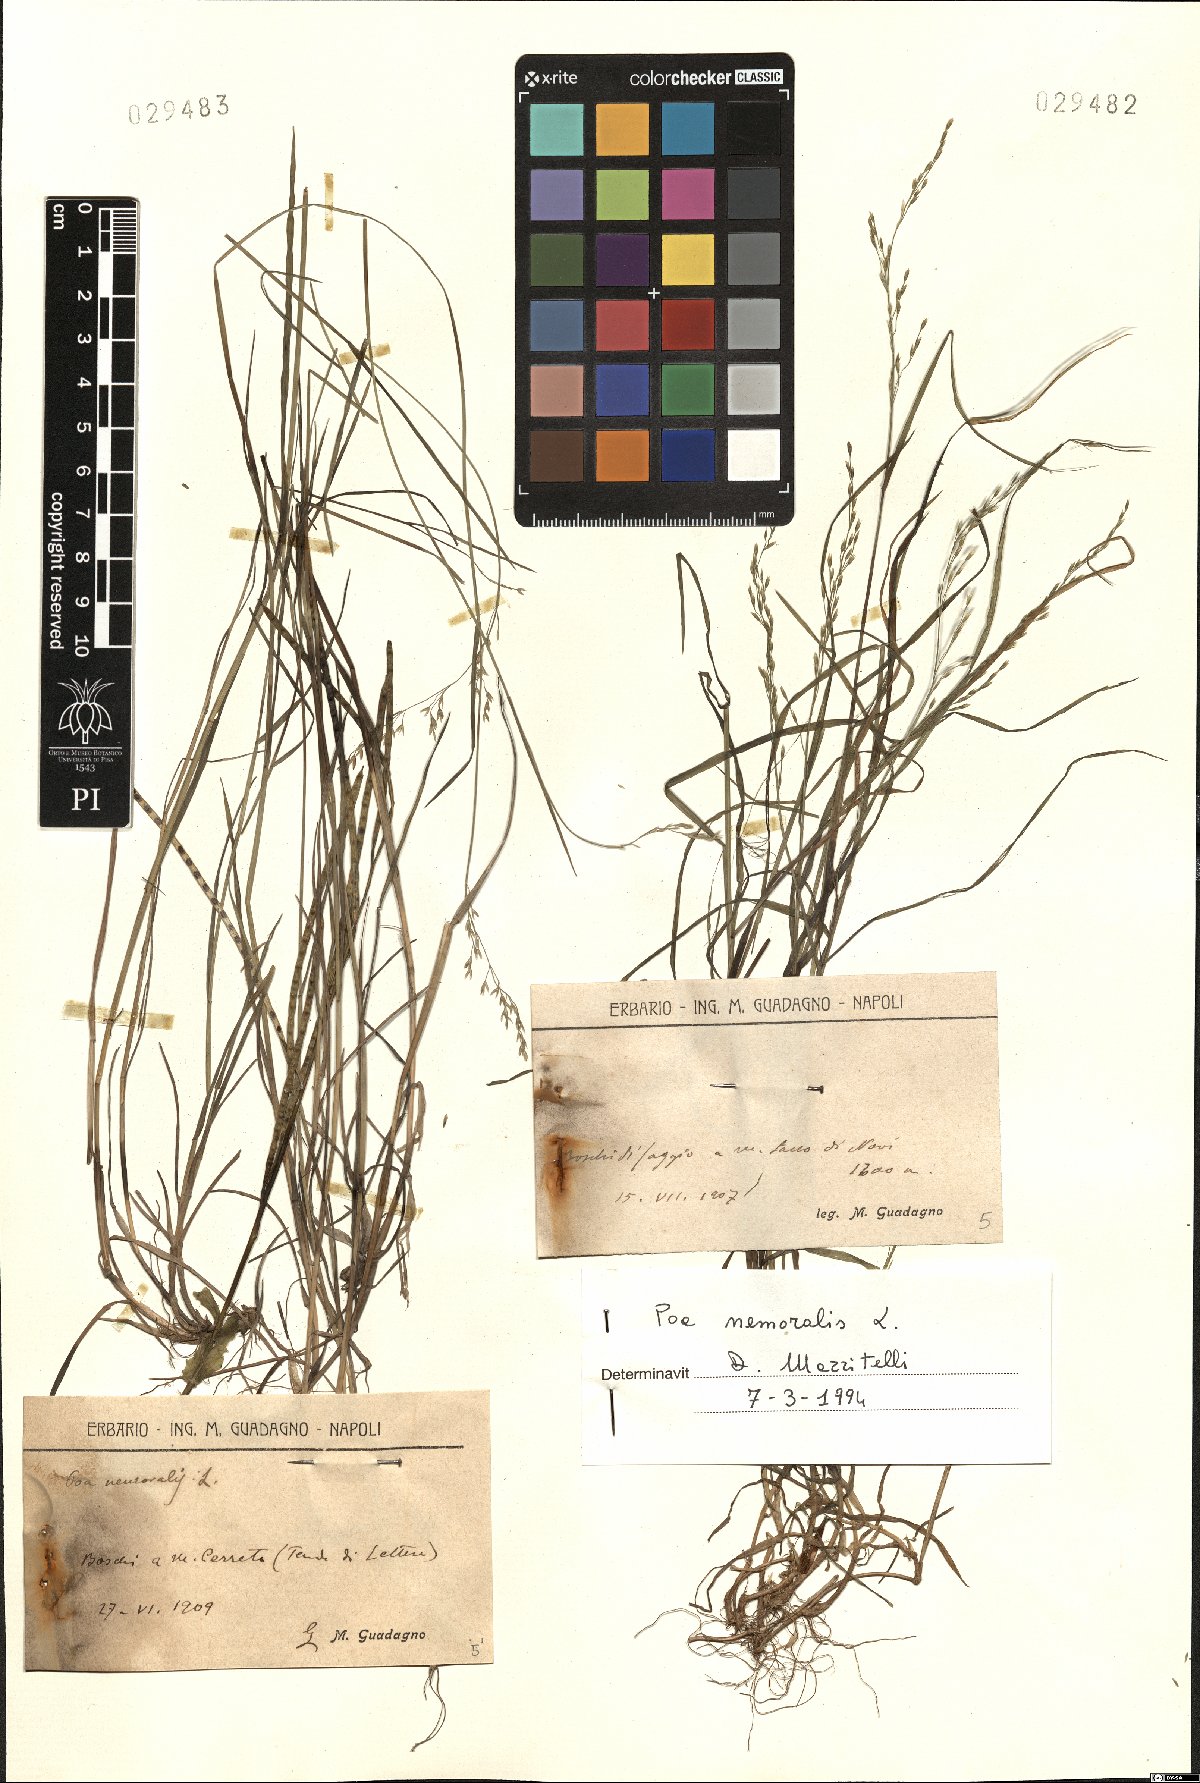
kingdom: Plantae
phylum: Tracheophyta
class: Liliopsida
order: Poales
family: Poaceae
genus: Poa
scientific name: Poa nemoralis
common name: Wood bluegrass
